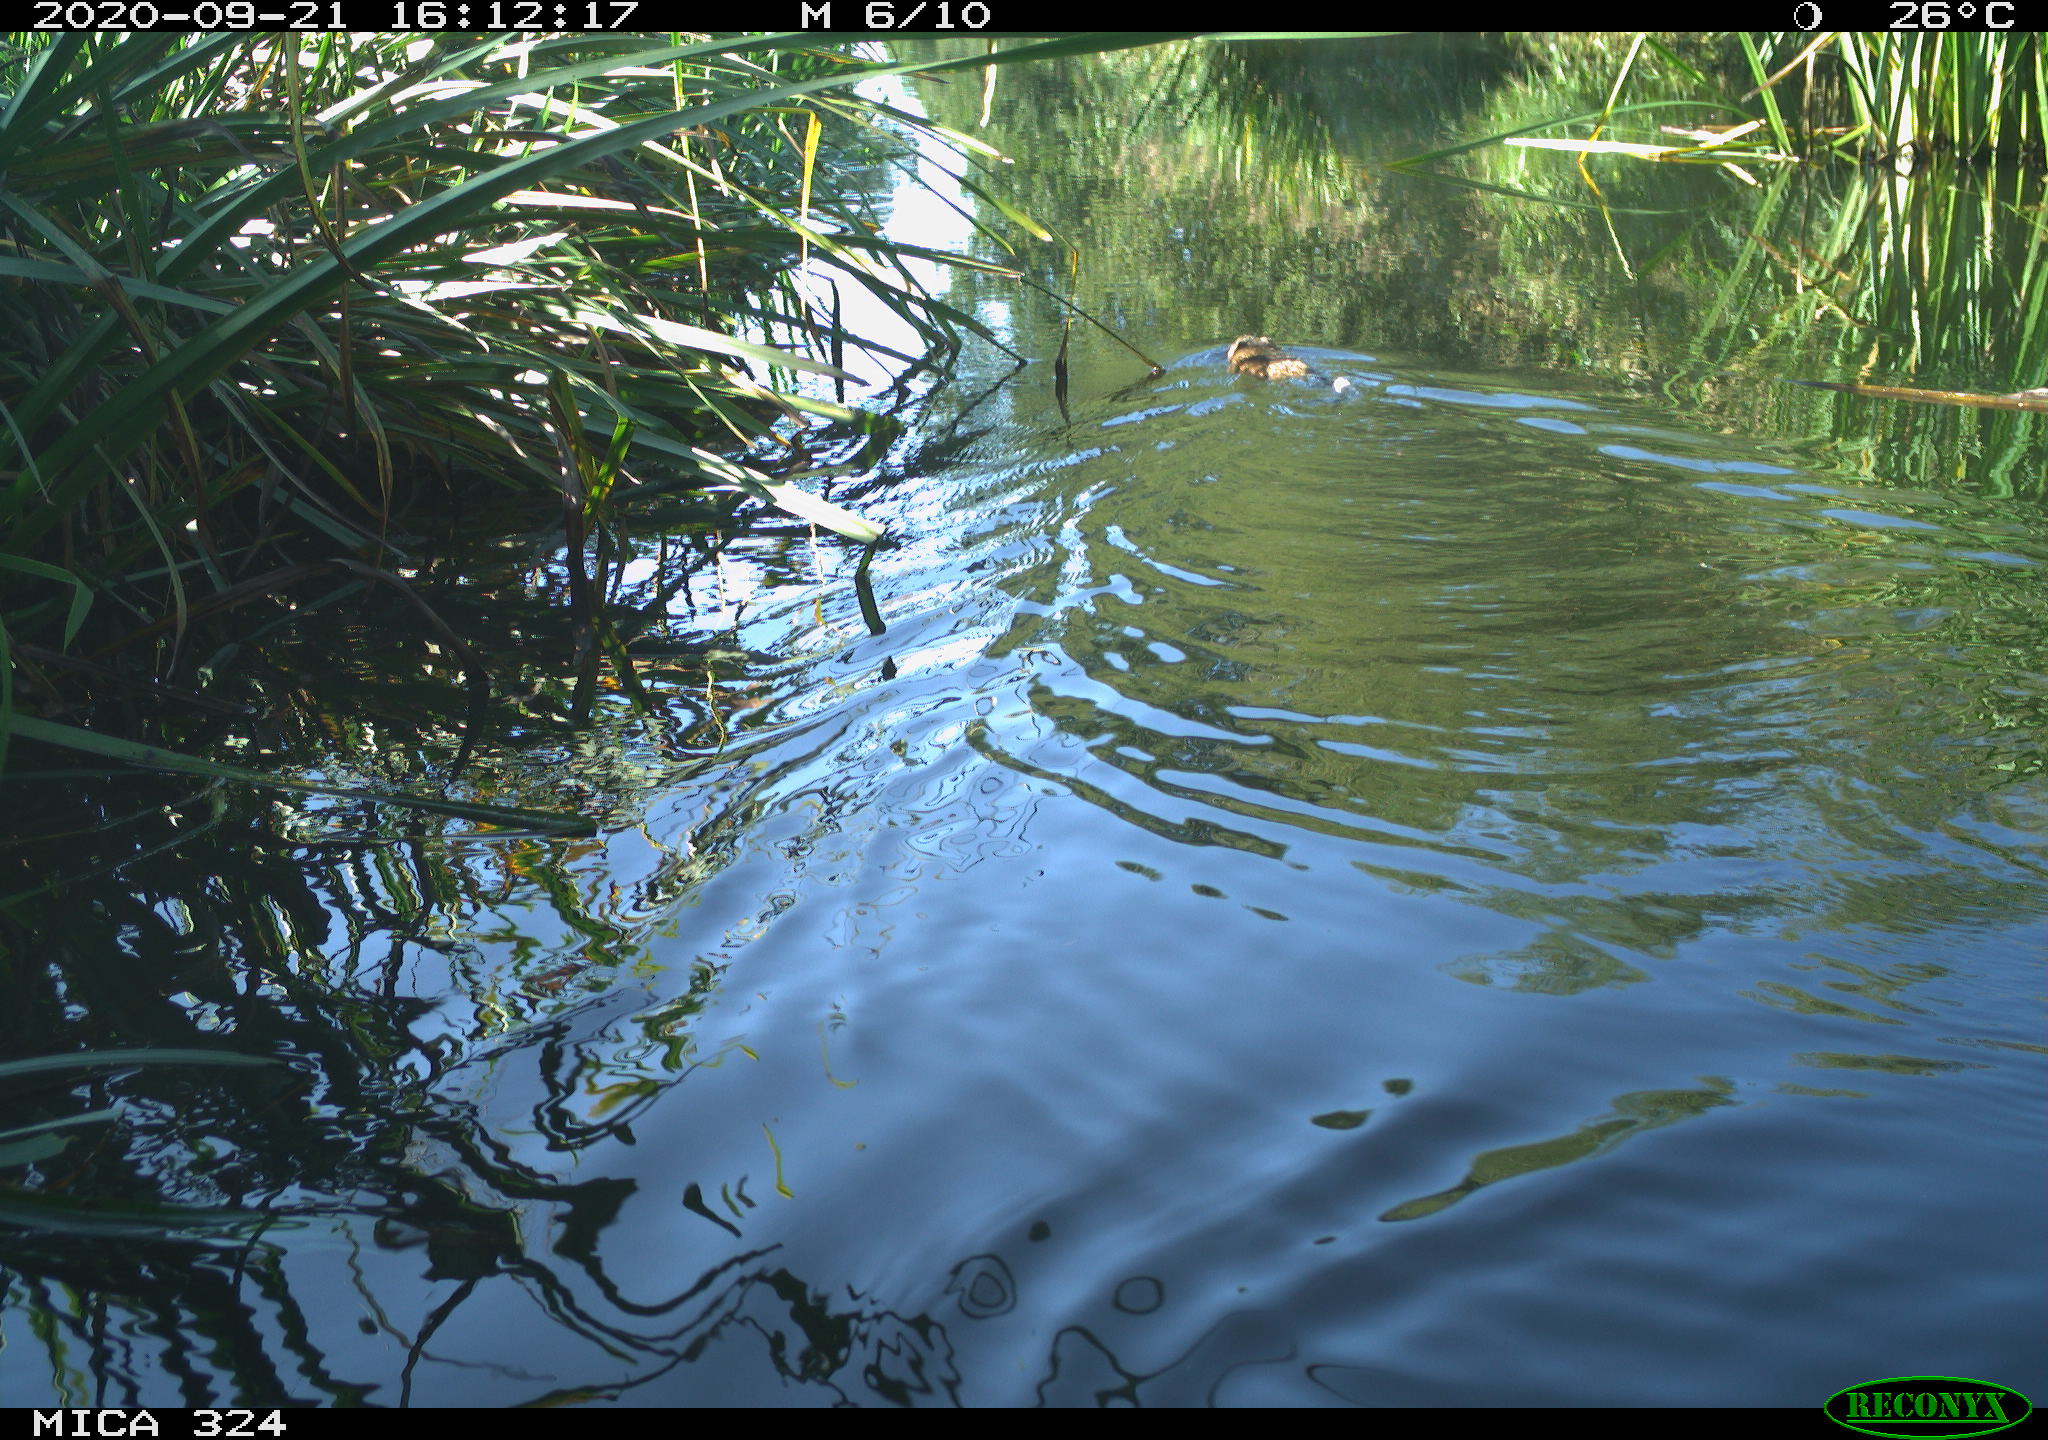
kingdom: Animalia
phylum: Chordata
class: Mammalia
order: Rodentia
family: Cricetidae
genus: Ondatra
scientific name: Ondatra zibethicus
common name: Muskrat
